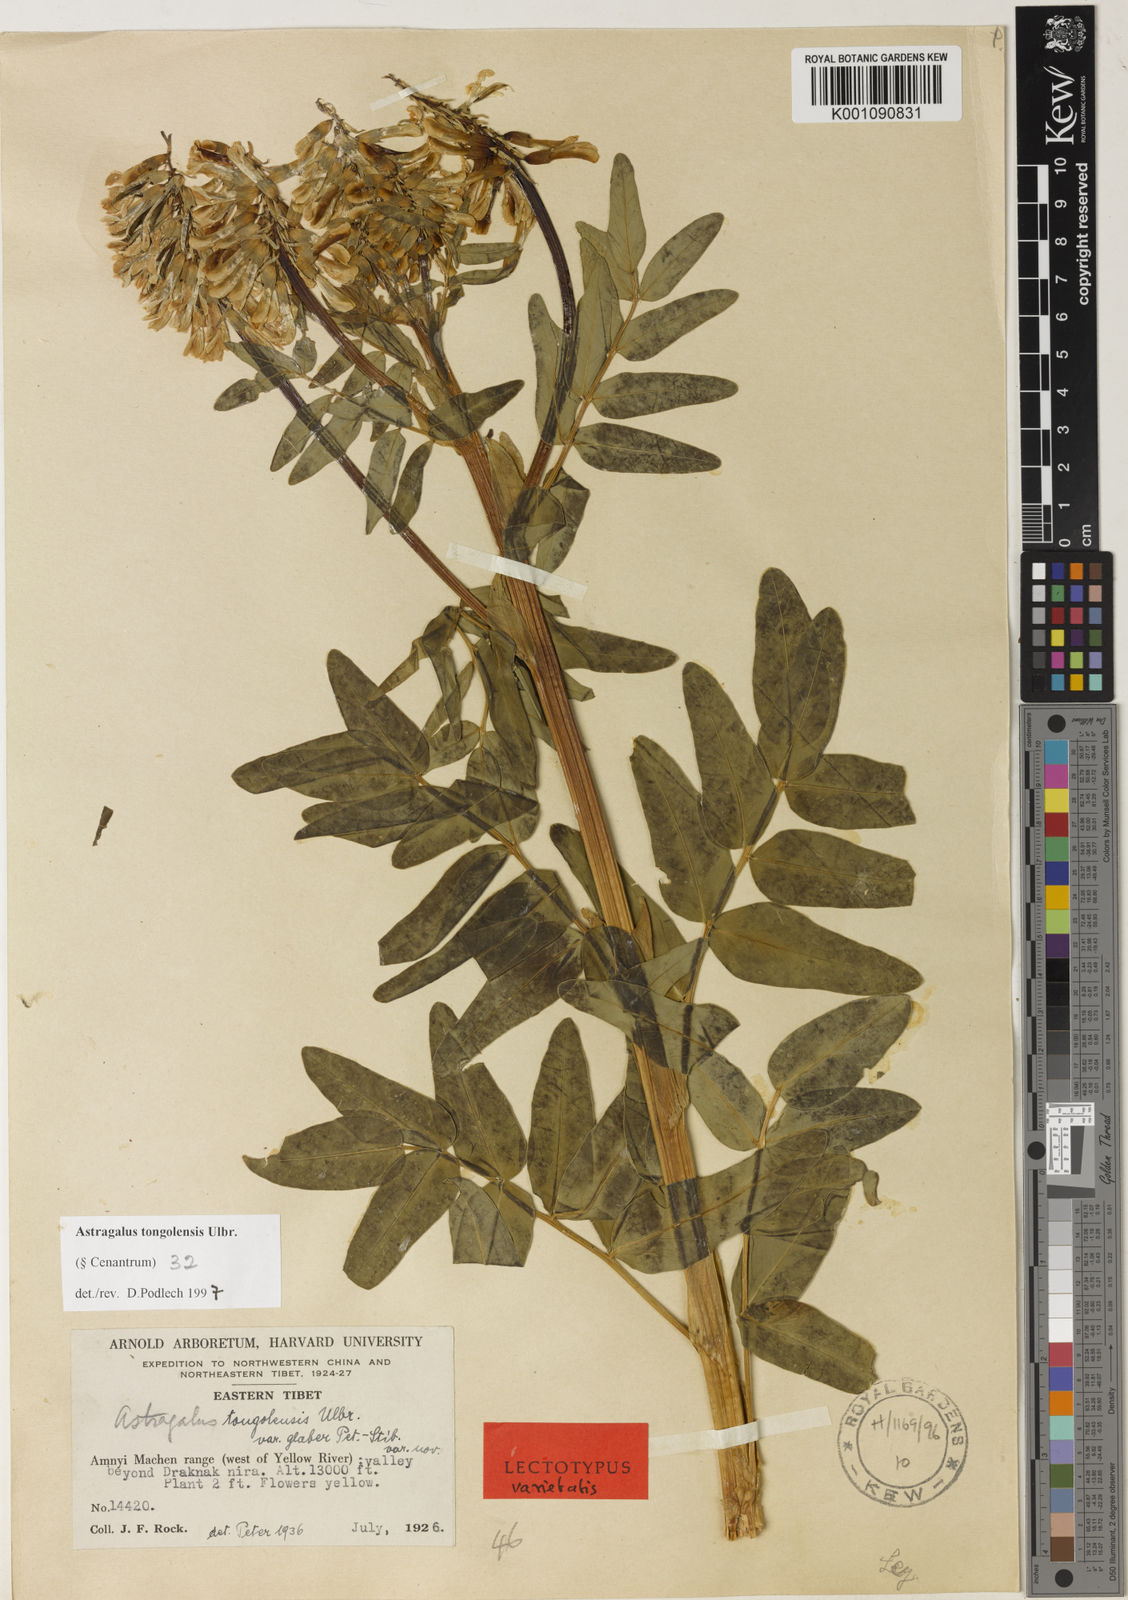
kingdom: Plantae
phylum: Tracheophyta
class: Magnoliopsida
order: Fabales
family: Fabaceae
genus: Astragalus
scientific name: Astragalus
